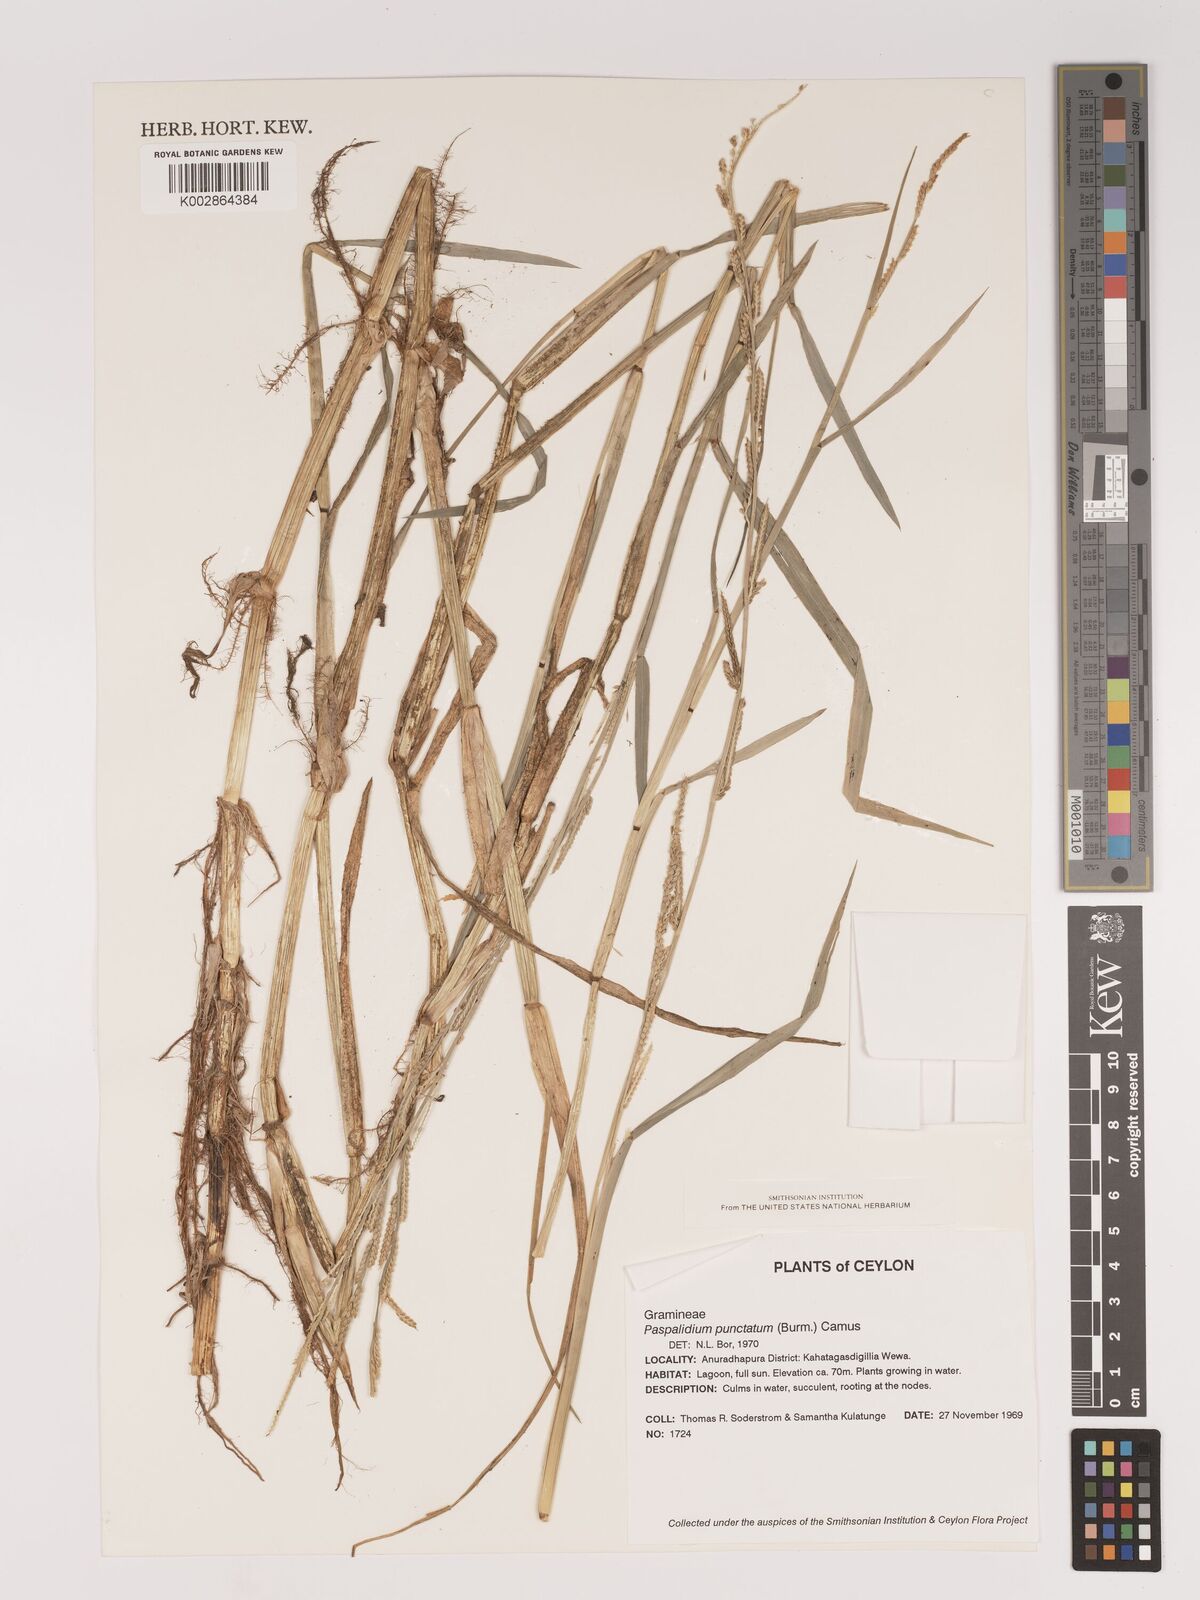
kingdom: Plantae
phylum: Tracheophyta
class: Liliopsida
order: Poales
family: Poaceae
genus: Setaria
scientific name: Setaria punctata
